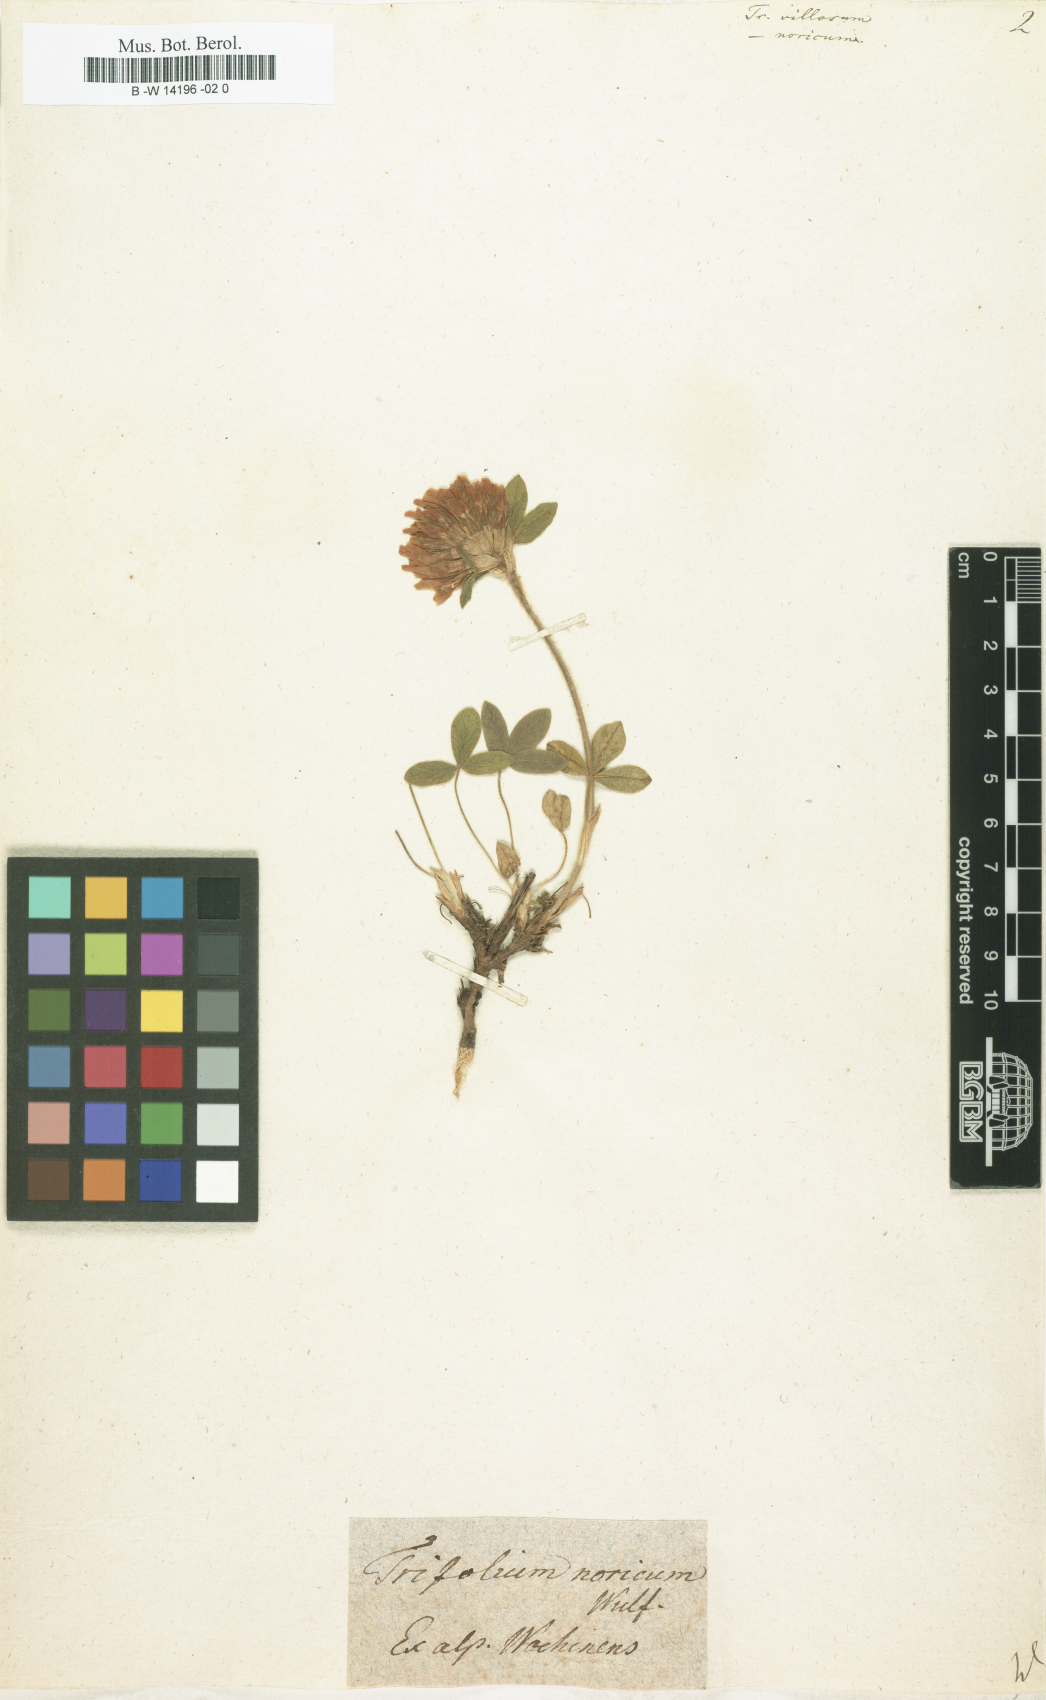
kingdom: Plantae
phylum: Tracheophyta
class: Magnoliopsida
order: Fabales
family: Fabaceae
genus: Trifolium
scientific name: Trifolium
